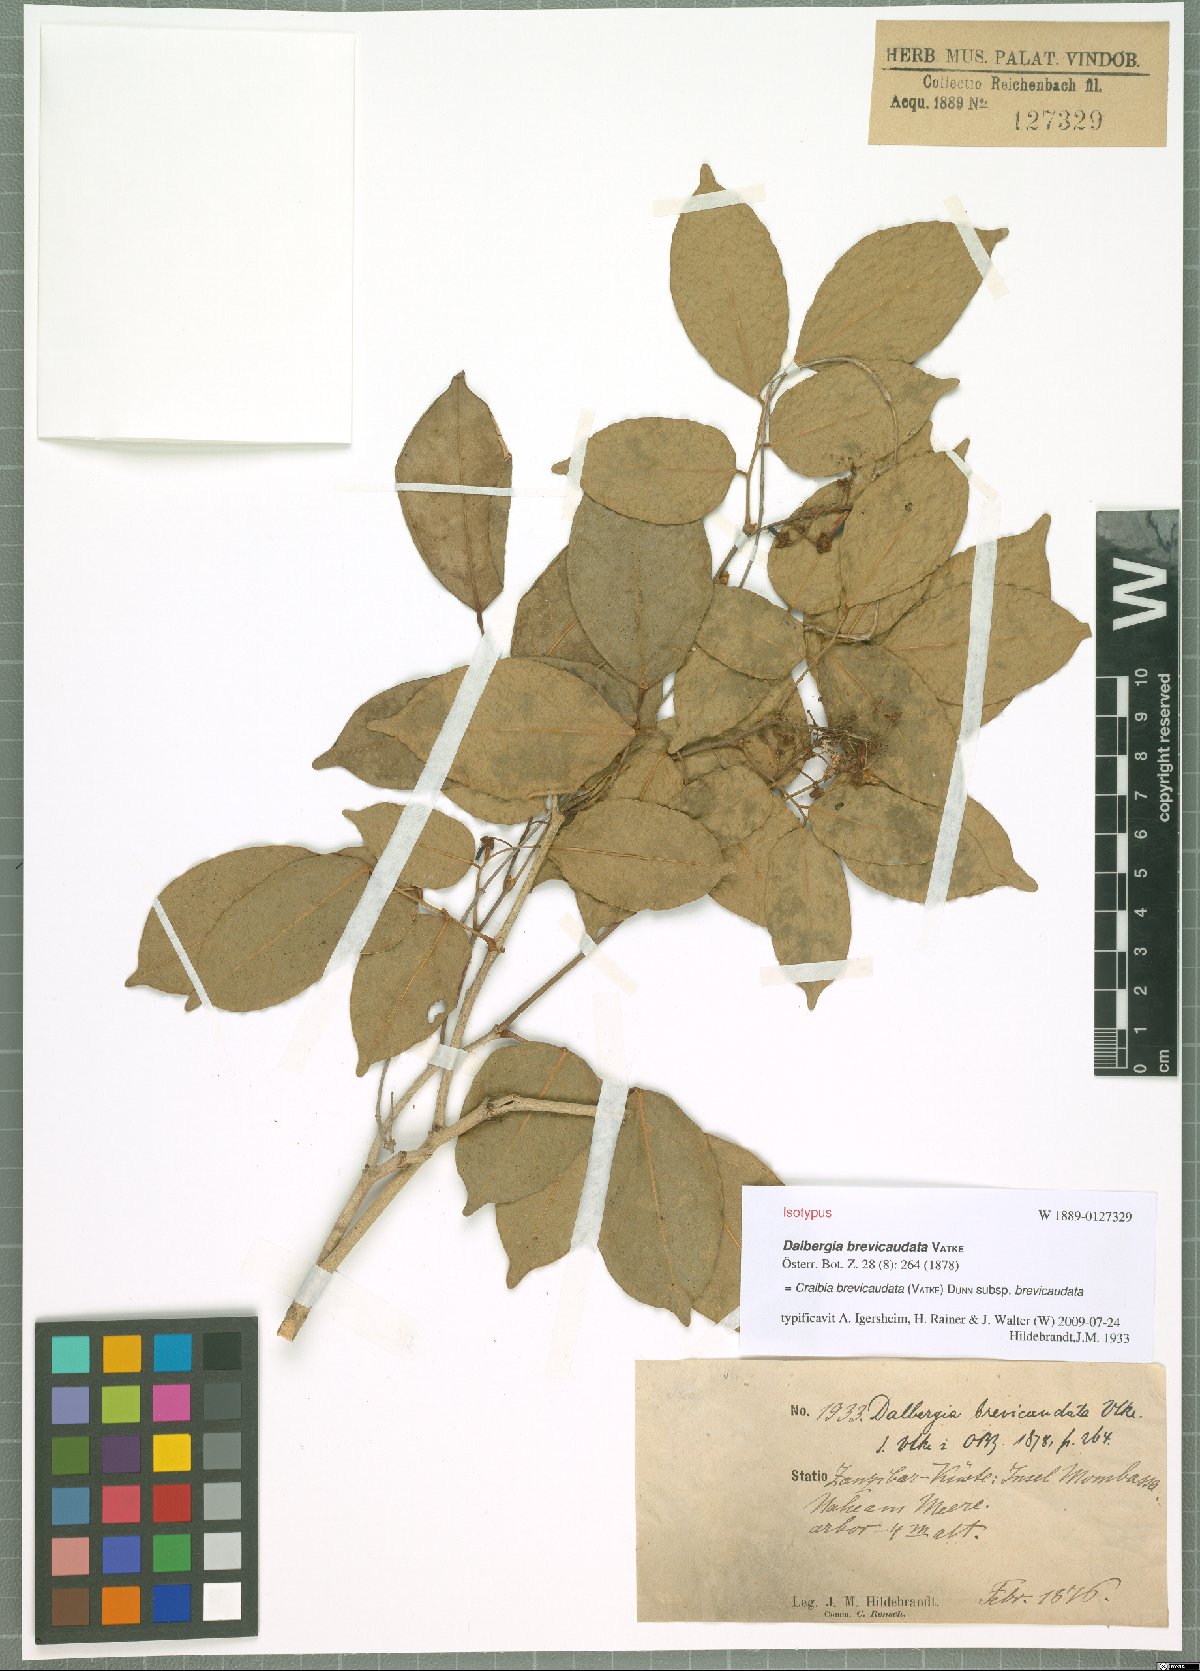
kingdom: Plantae
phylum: Tracheophyta
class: Magnoliopsida
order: Fabales
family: Fabaceae
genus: Craibia
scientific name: Craibia brevicaudata
